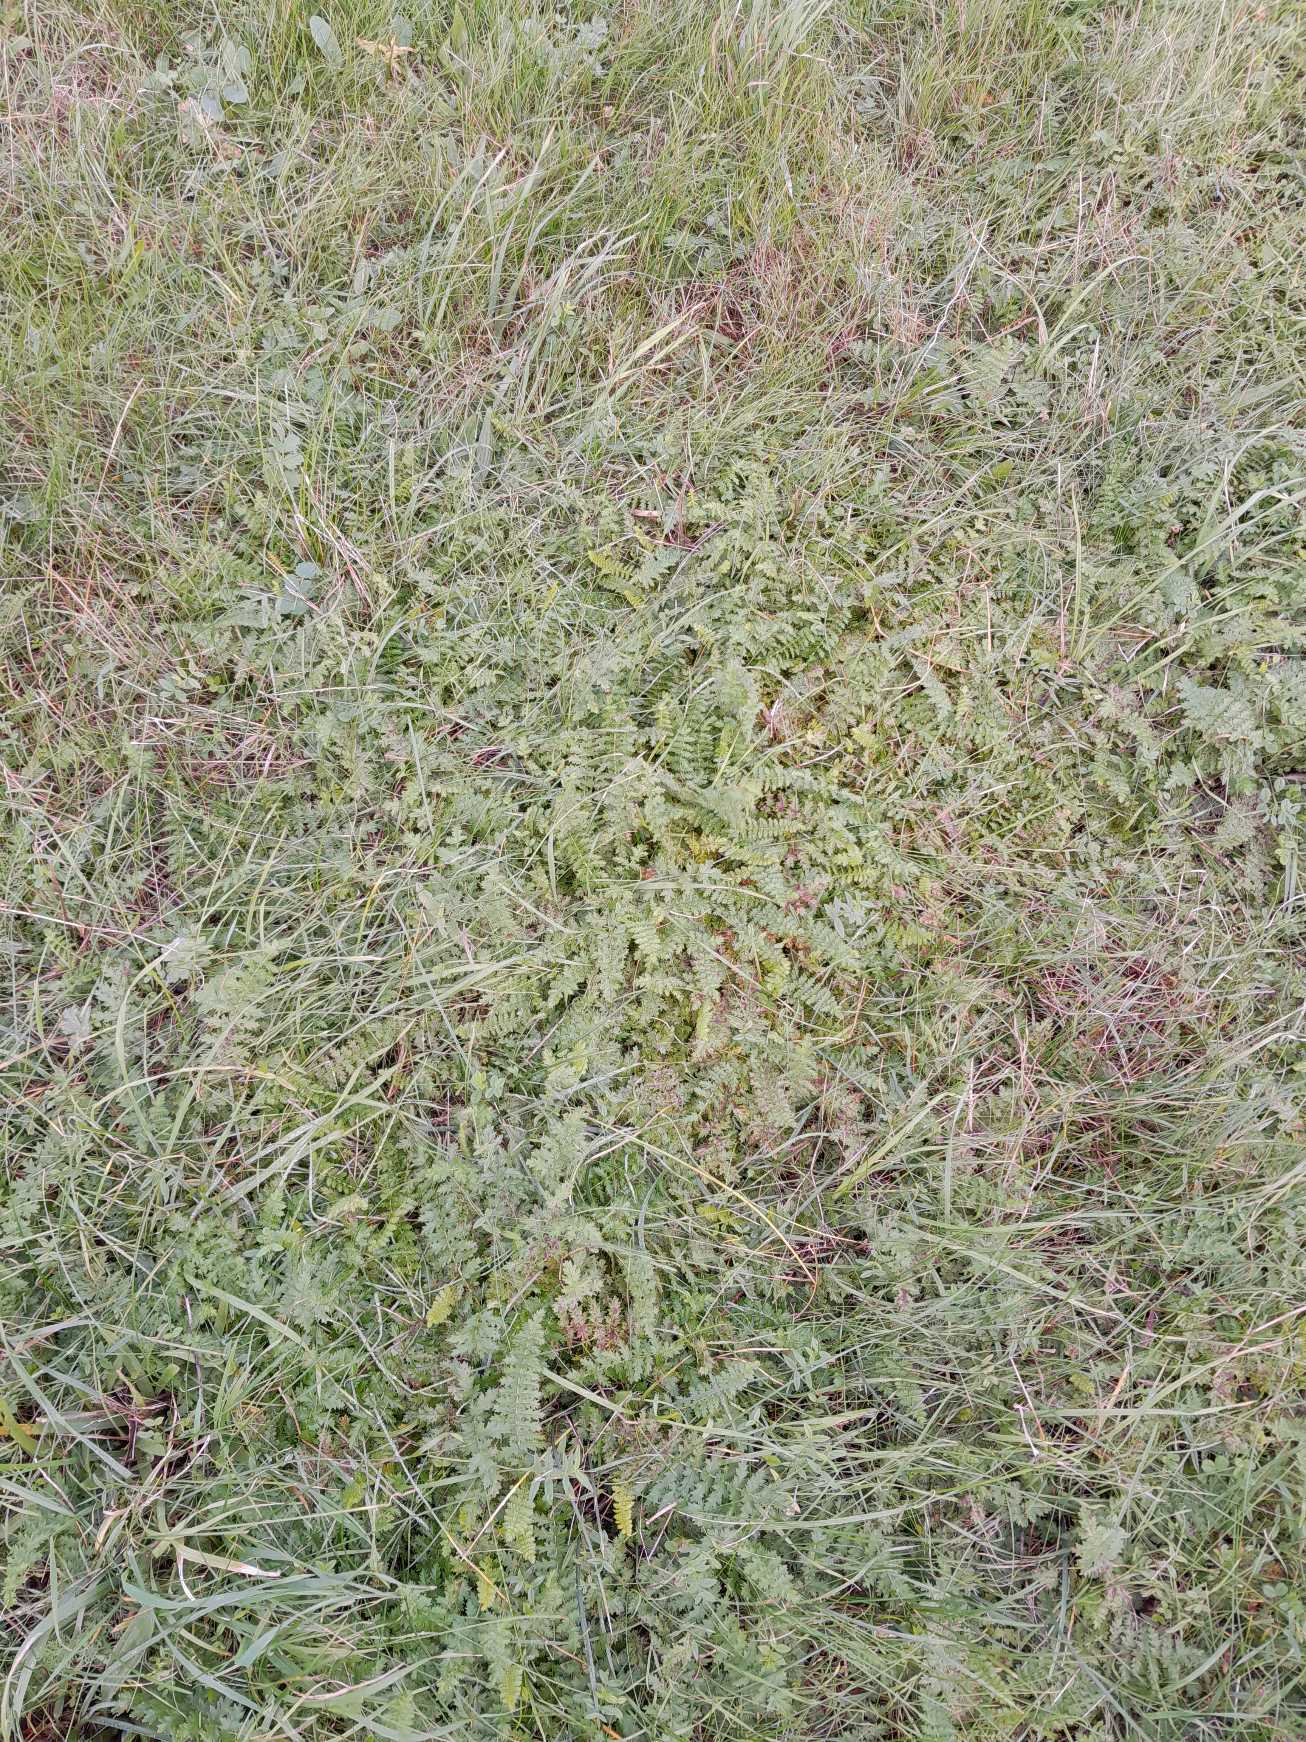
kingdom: Plantae
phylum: Tracheophyta
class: Magnoliopsida
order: Rosales
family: Rosaceae
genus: Filipendula
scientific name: Filipendula vulgaris
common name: Knoldet mjødurt
